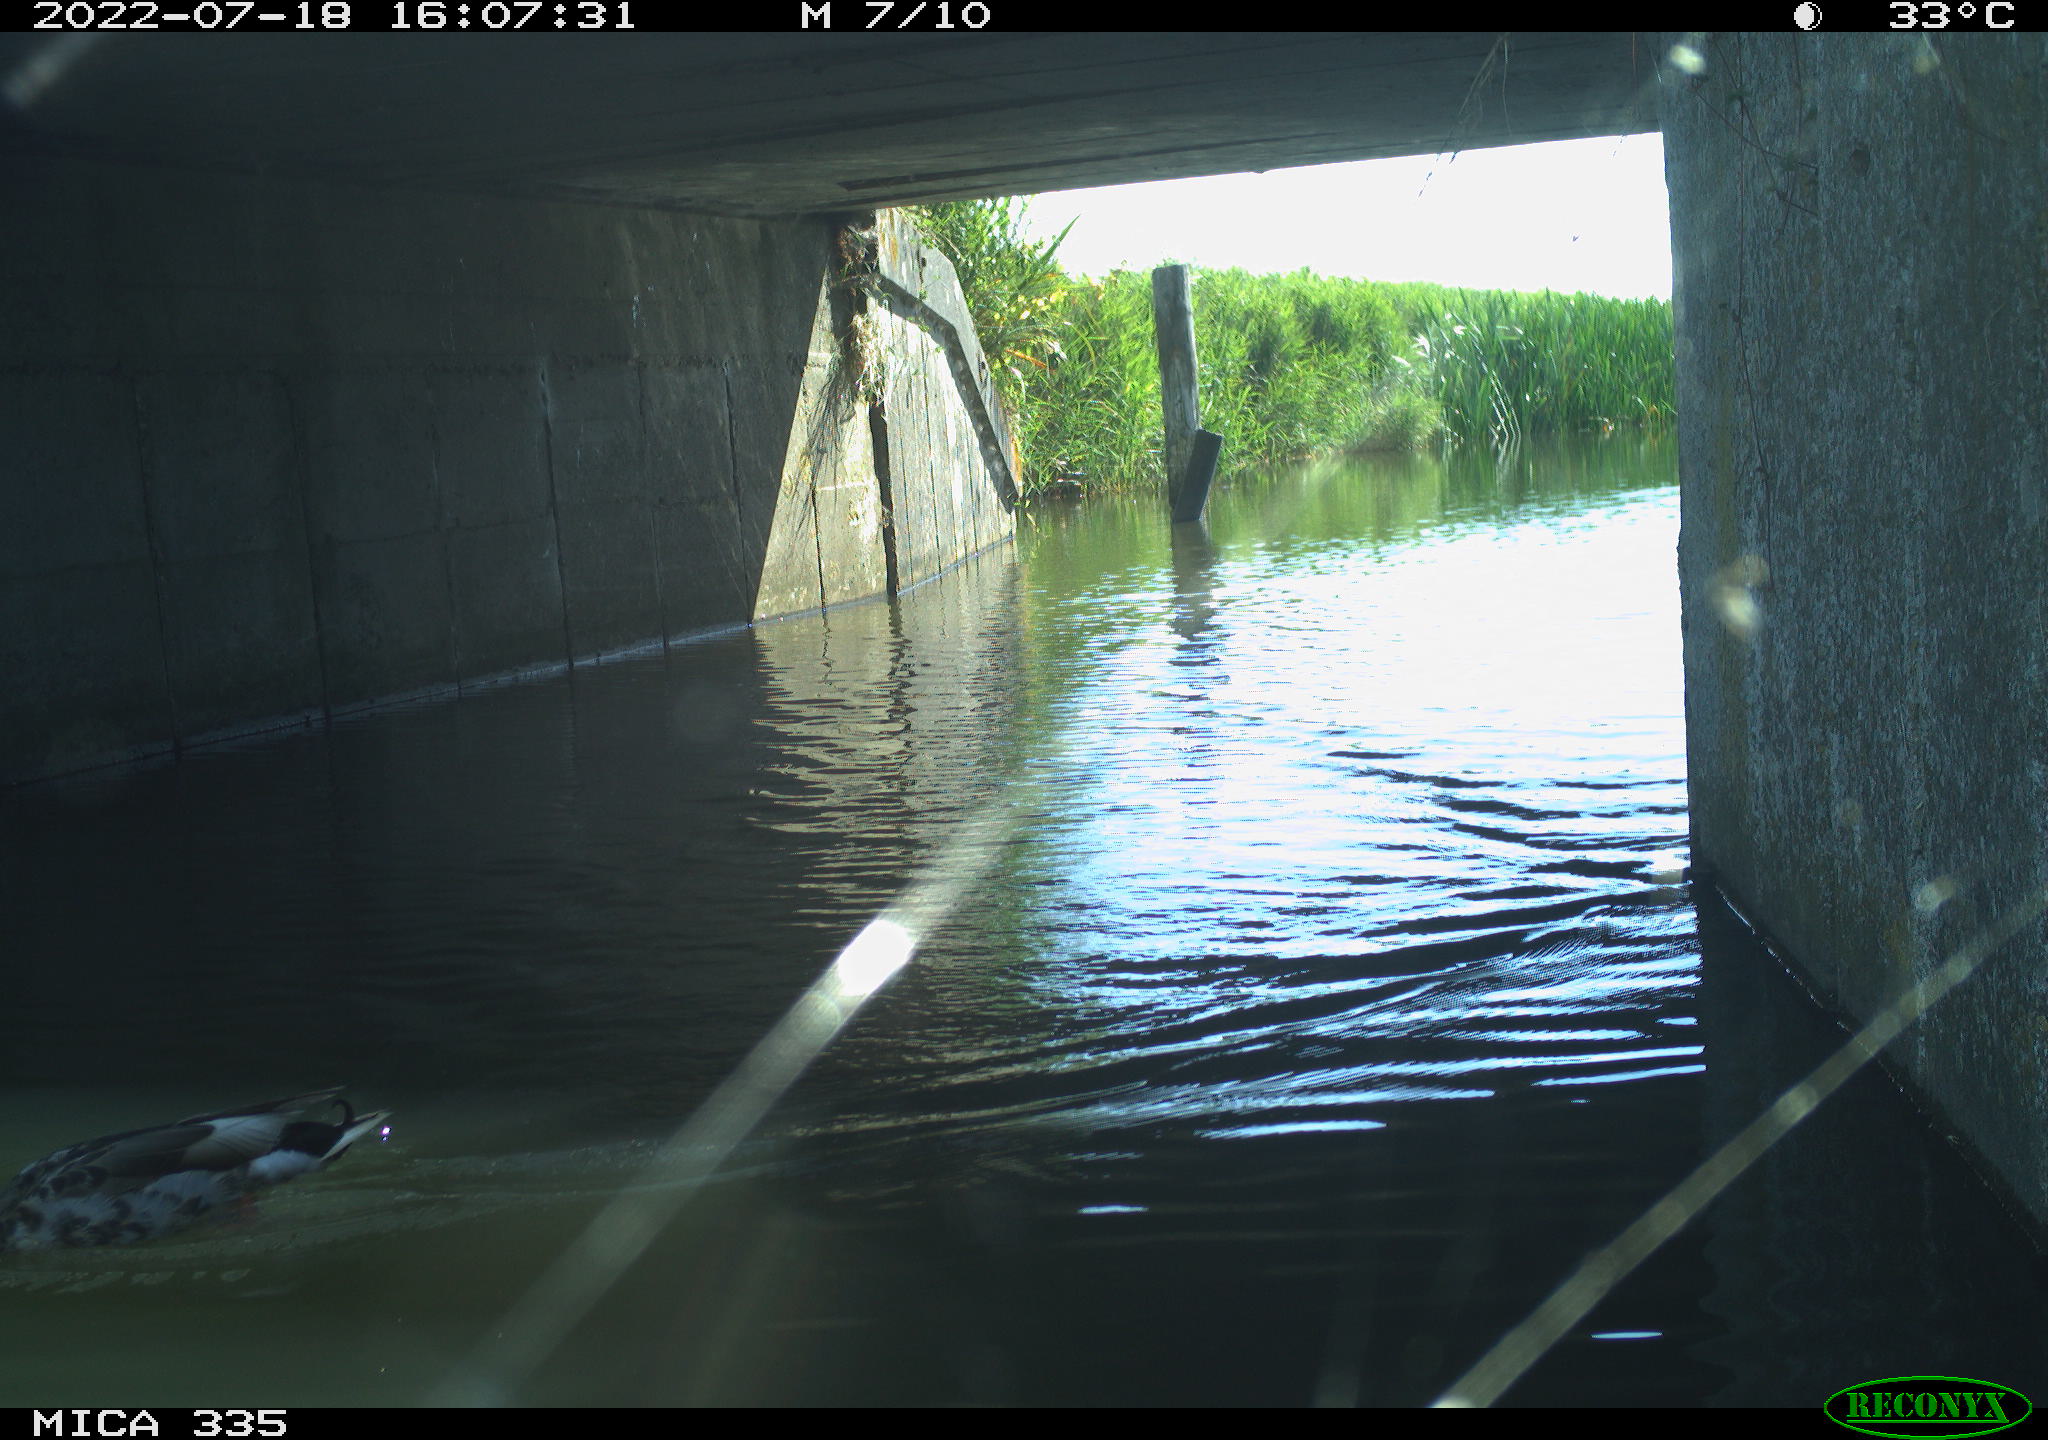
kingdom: Animalia
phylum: Chordata
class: Aves
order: Anseriformes
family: Anatidae
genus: Anas
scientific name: Anas platyrhynchos
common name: Mallard
